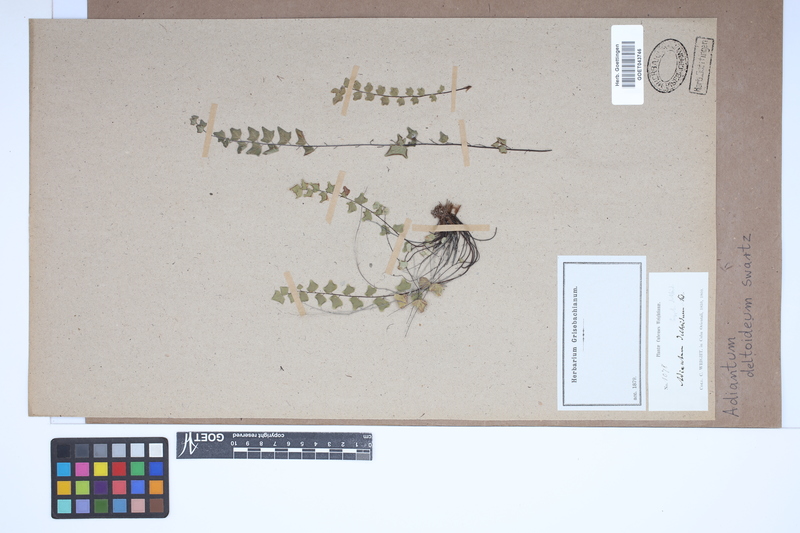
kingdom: Plantae
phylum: Tracheophyta
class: Polypodiopsida
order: Polypodiales
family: Pteridaceae
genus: Adiantum
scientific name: Adiantum deltoideum
